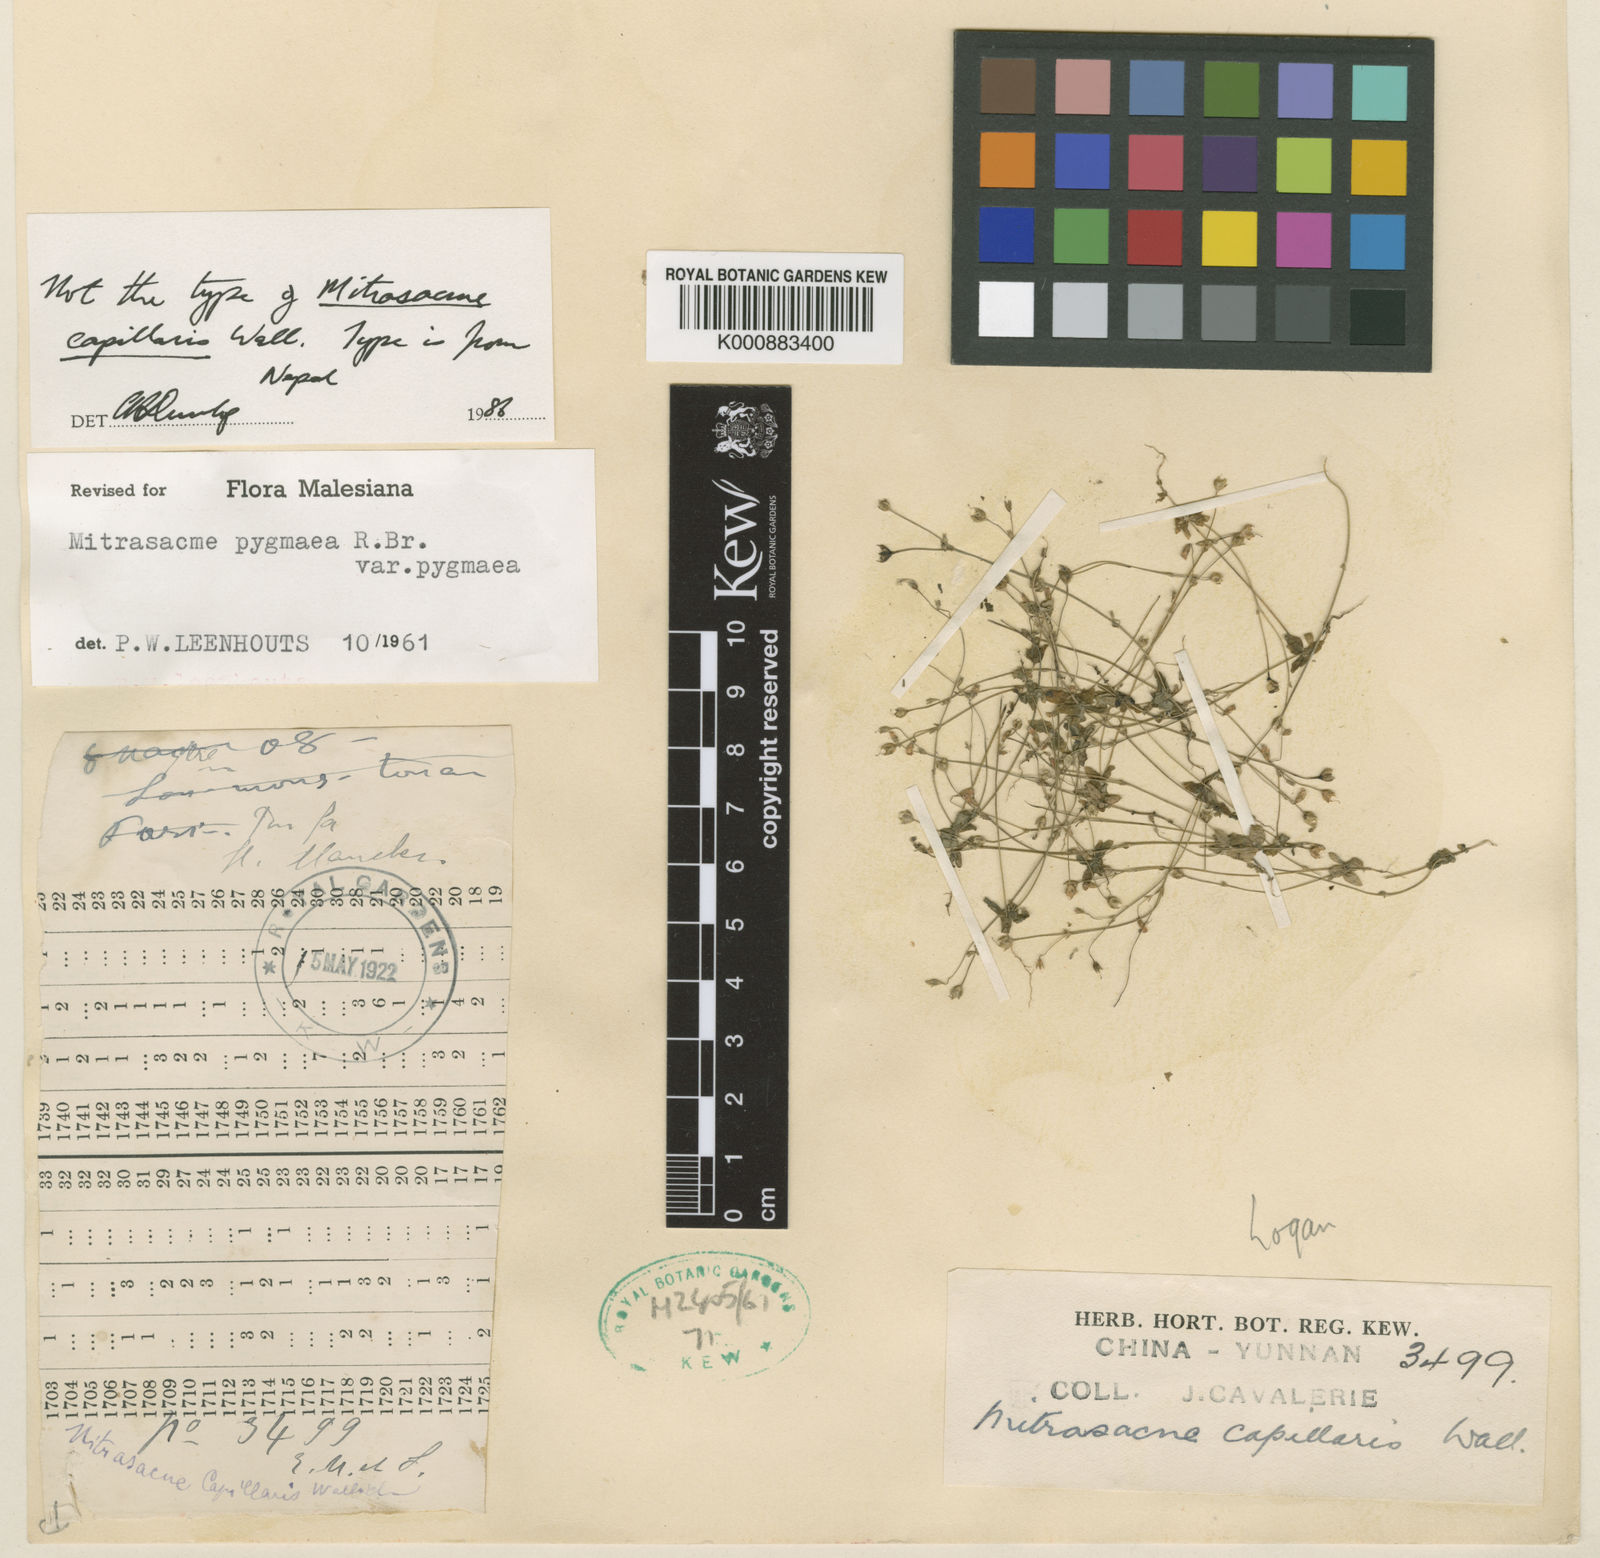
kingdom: Plantae
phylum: Tracheophyta
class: Magnoliopsida
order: Gentianales
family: Loganiaceae
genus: Mitrasacme
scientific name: Mitrasacme polymorpha
